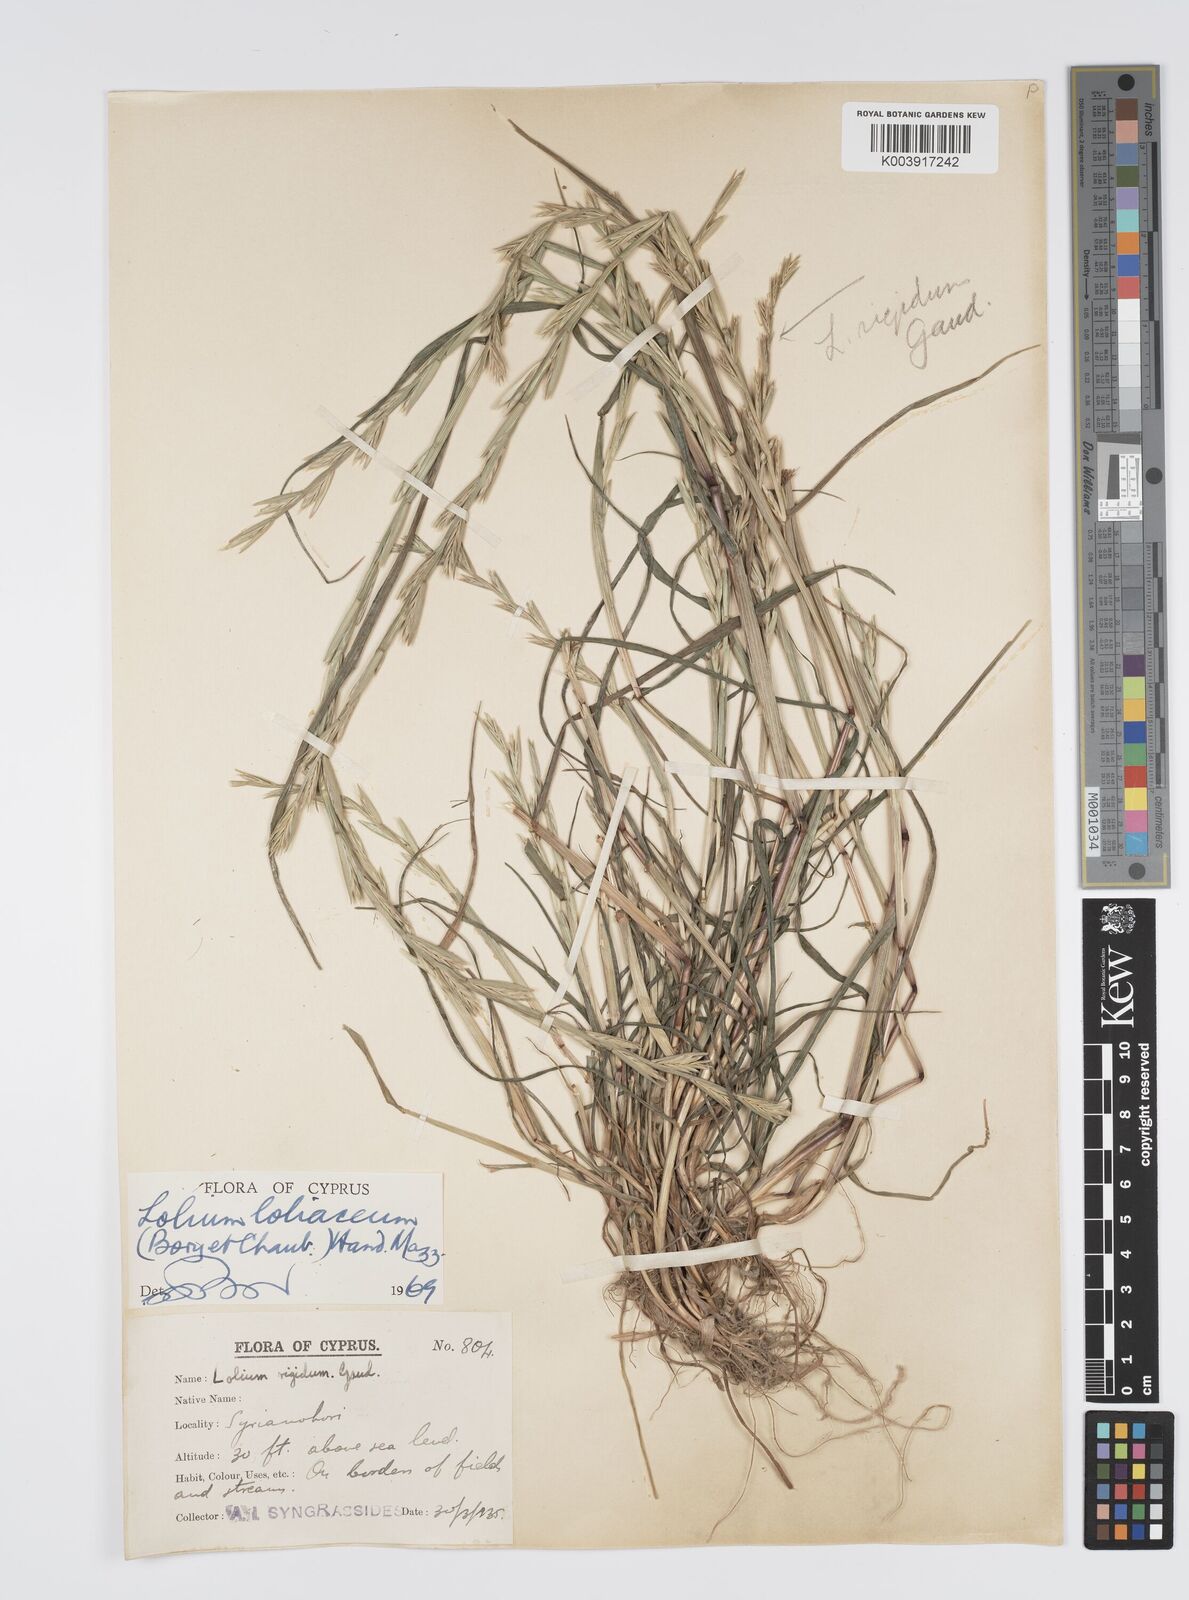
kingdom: Plantae
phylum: Tracheophyta
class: Liliopsida
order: Poales
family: Poaceae
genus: Lolium
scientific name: Lolium rigidum
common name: Wimmera ryegrass
